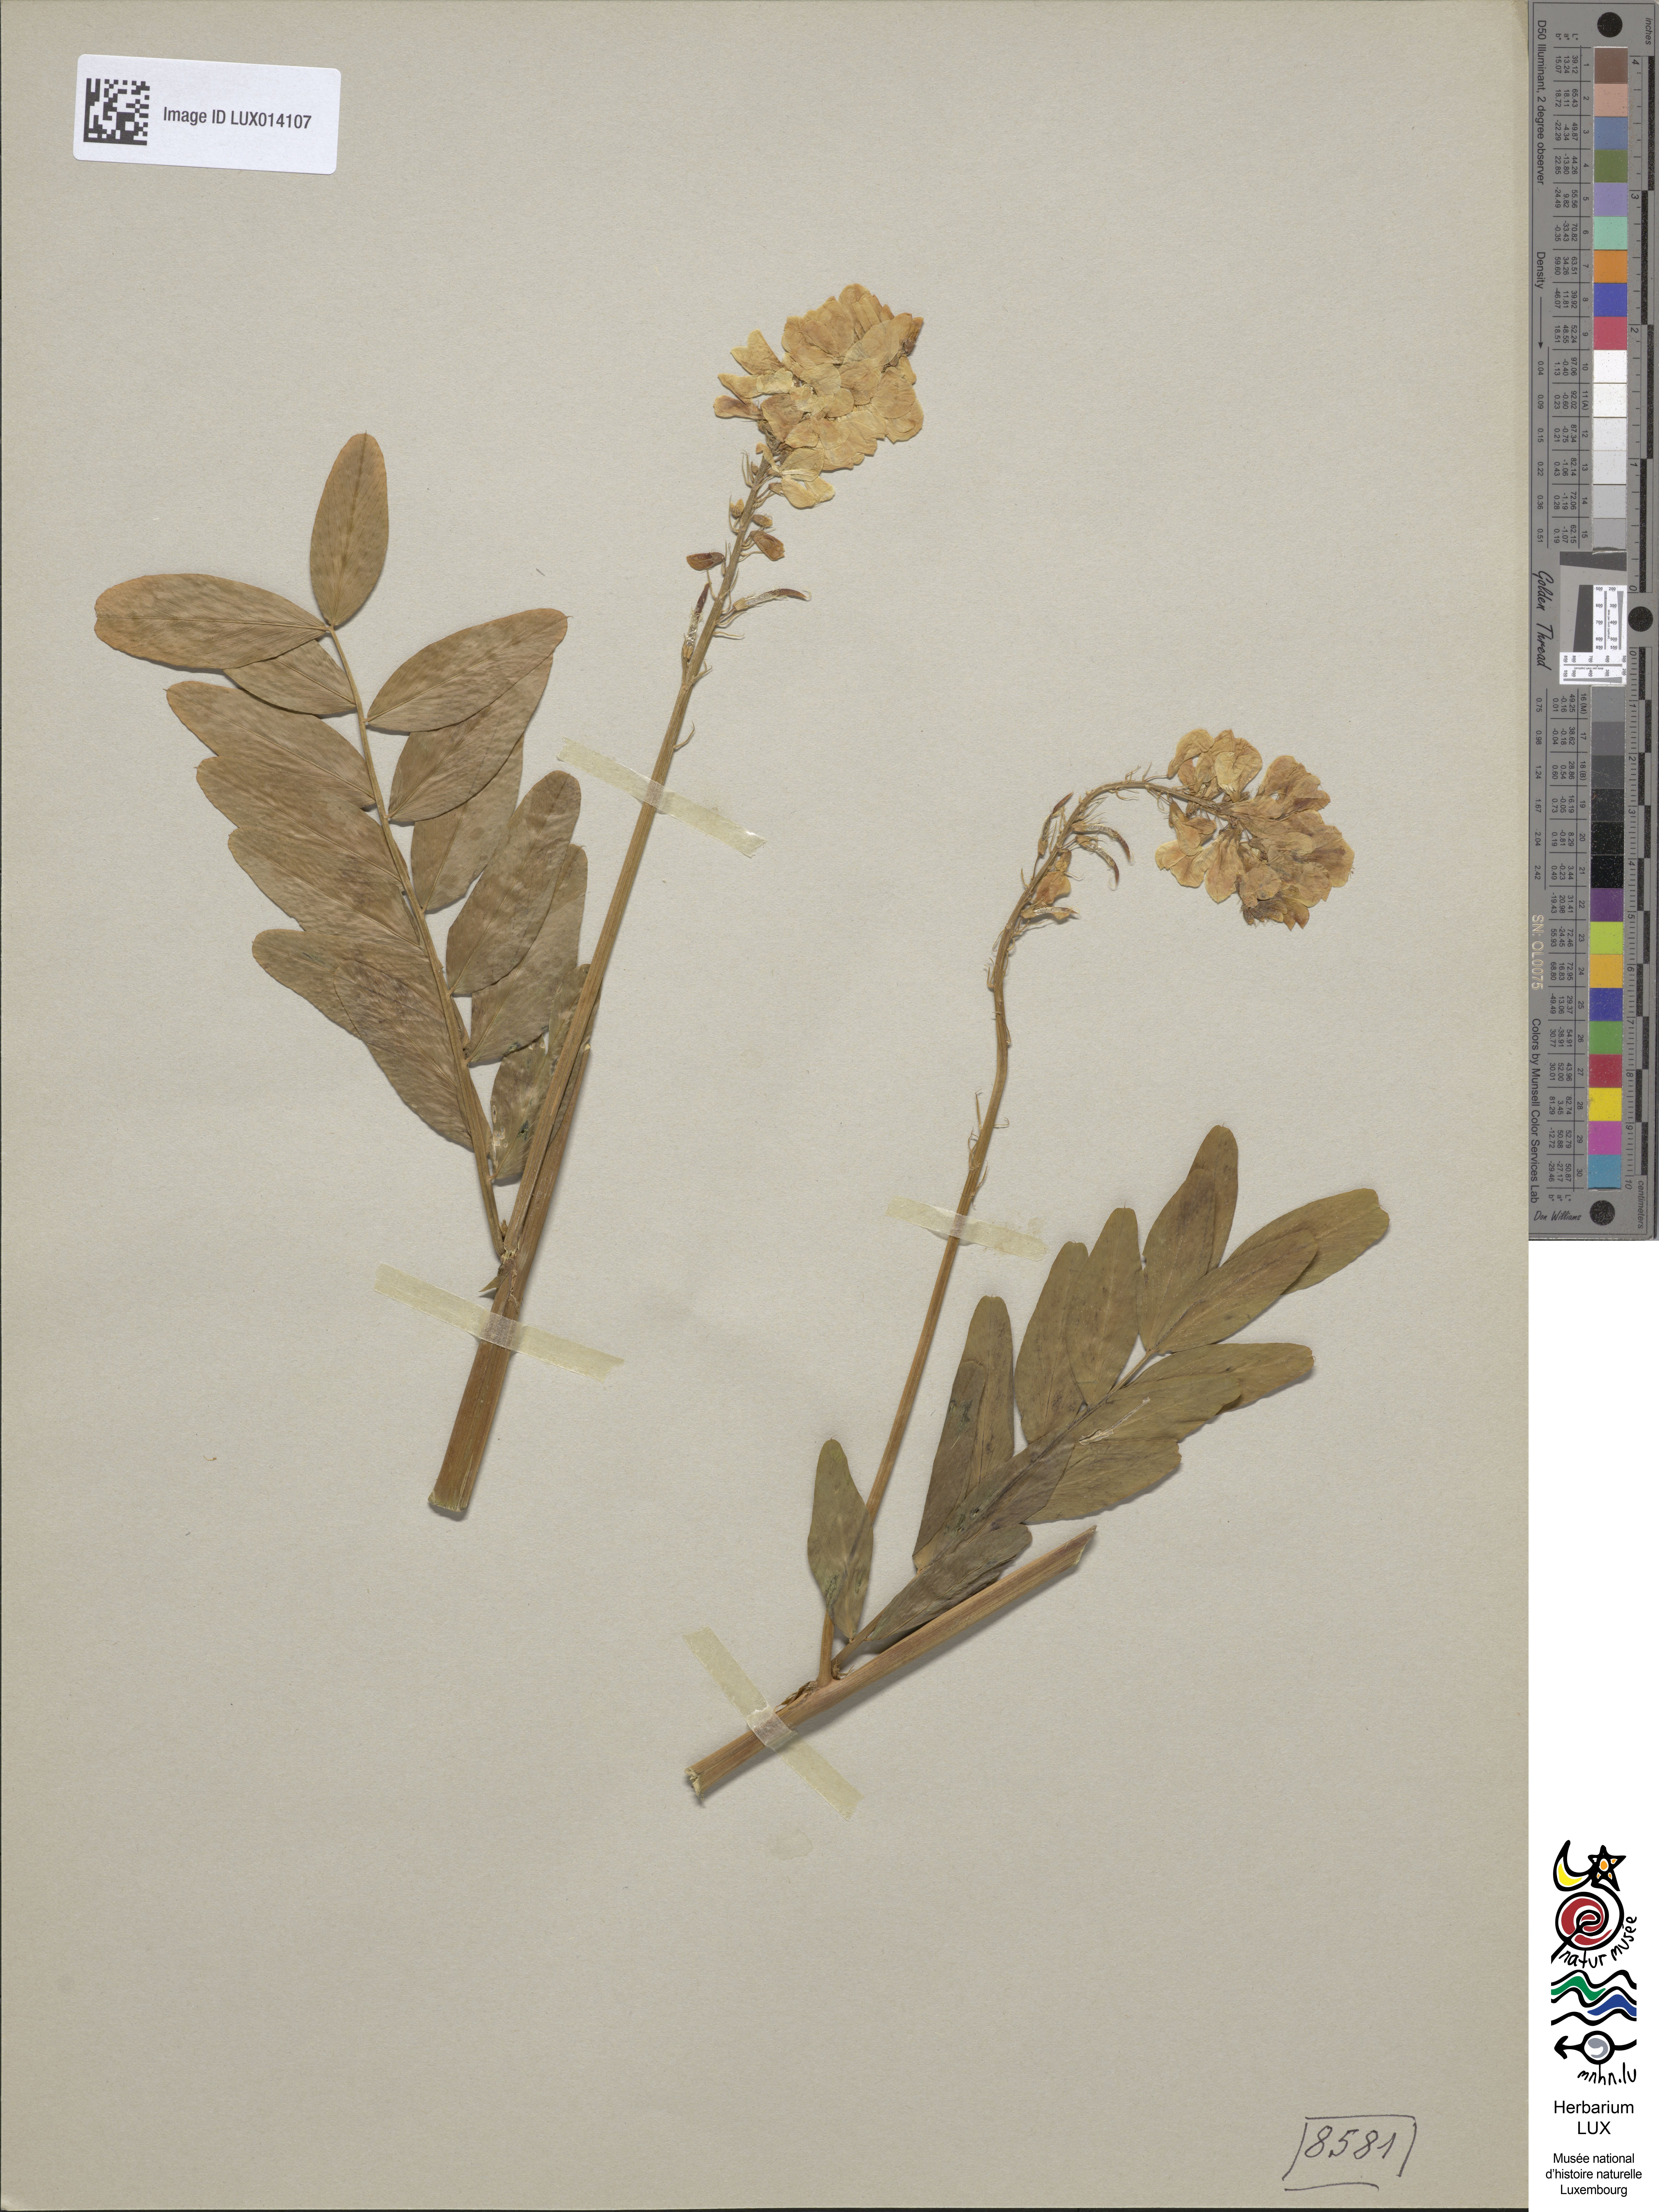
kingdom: Plantae
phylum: Tracheophyta
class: Magnoliopsida
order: Fabales
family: Fabaceae
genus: Galega
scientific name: Galega orientalis
